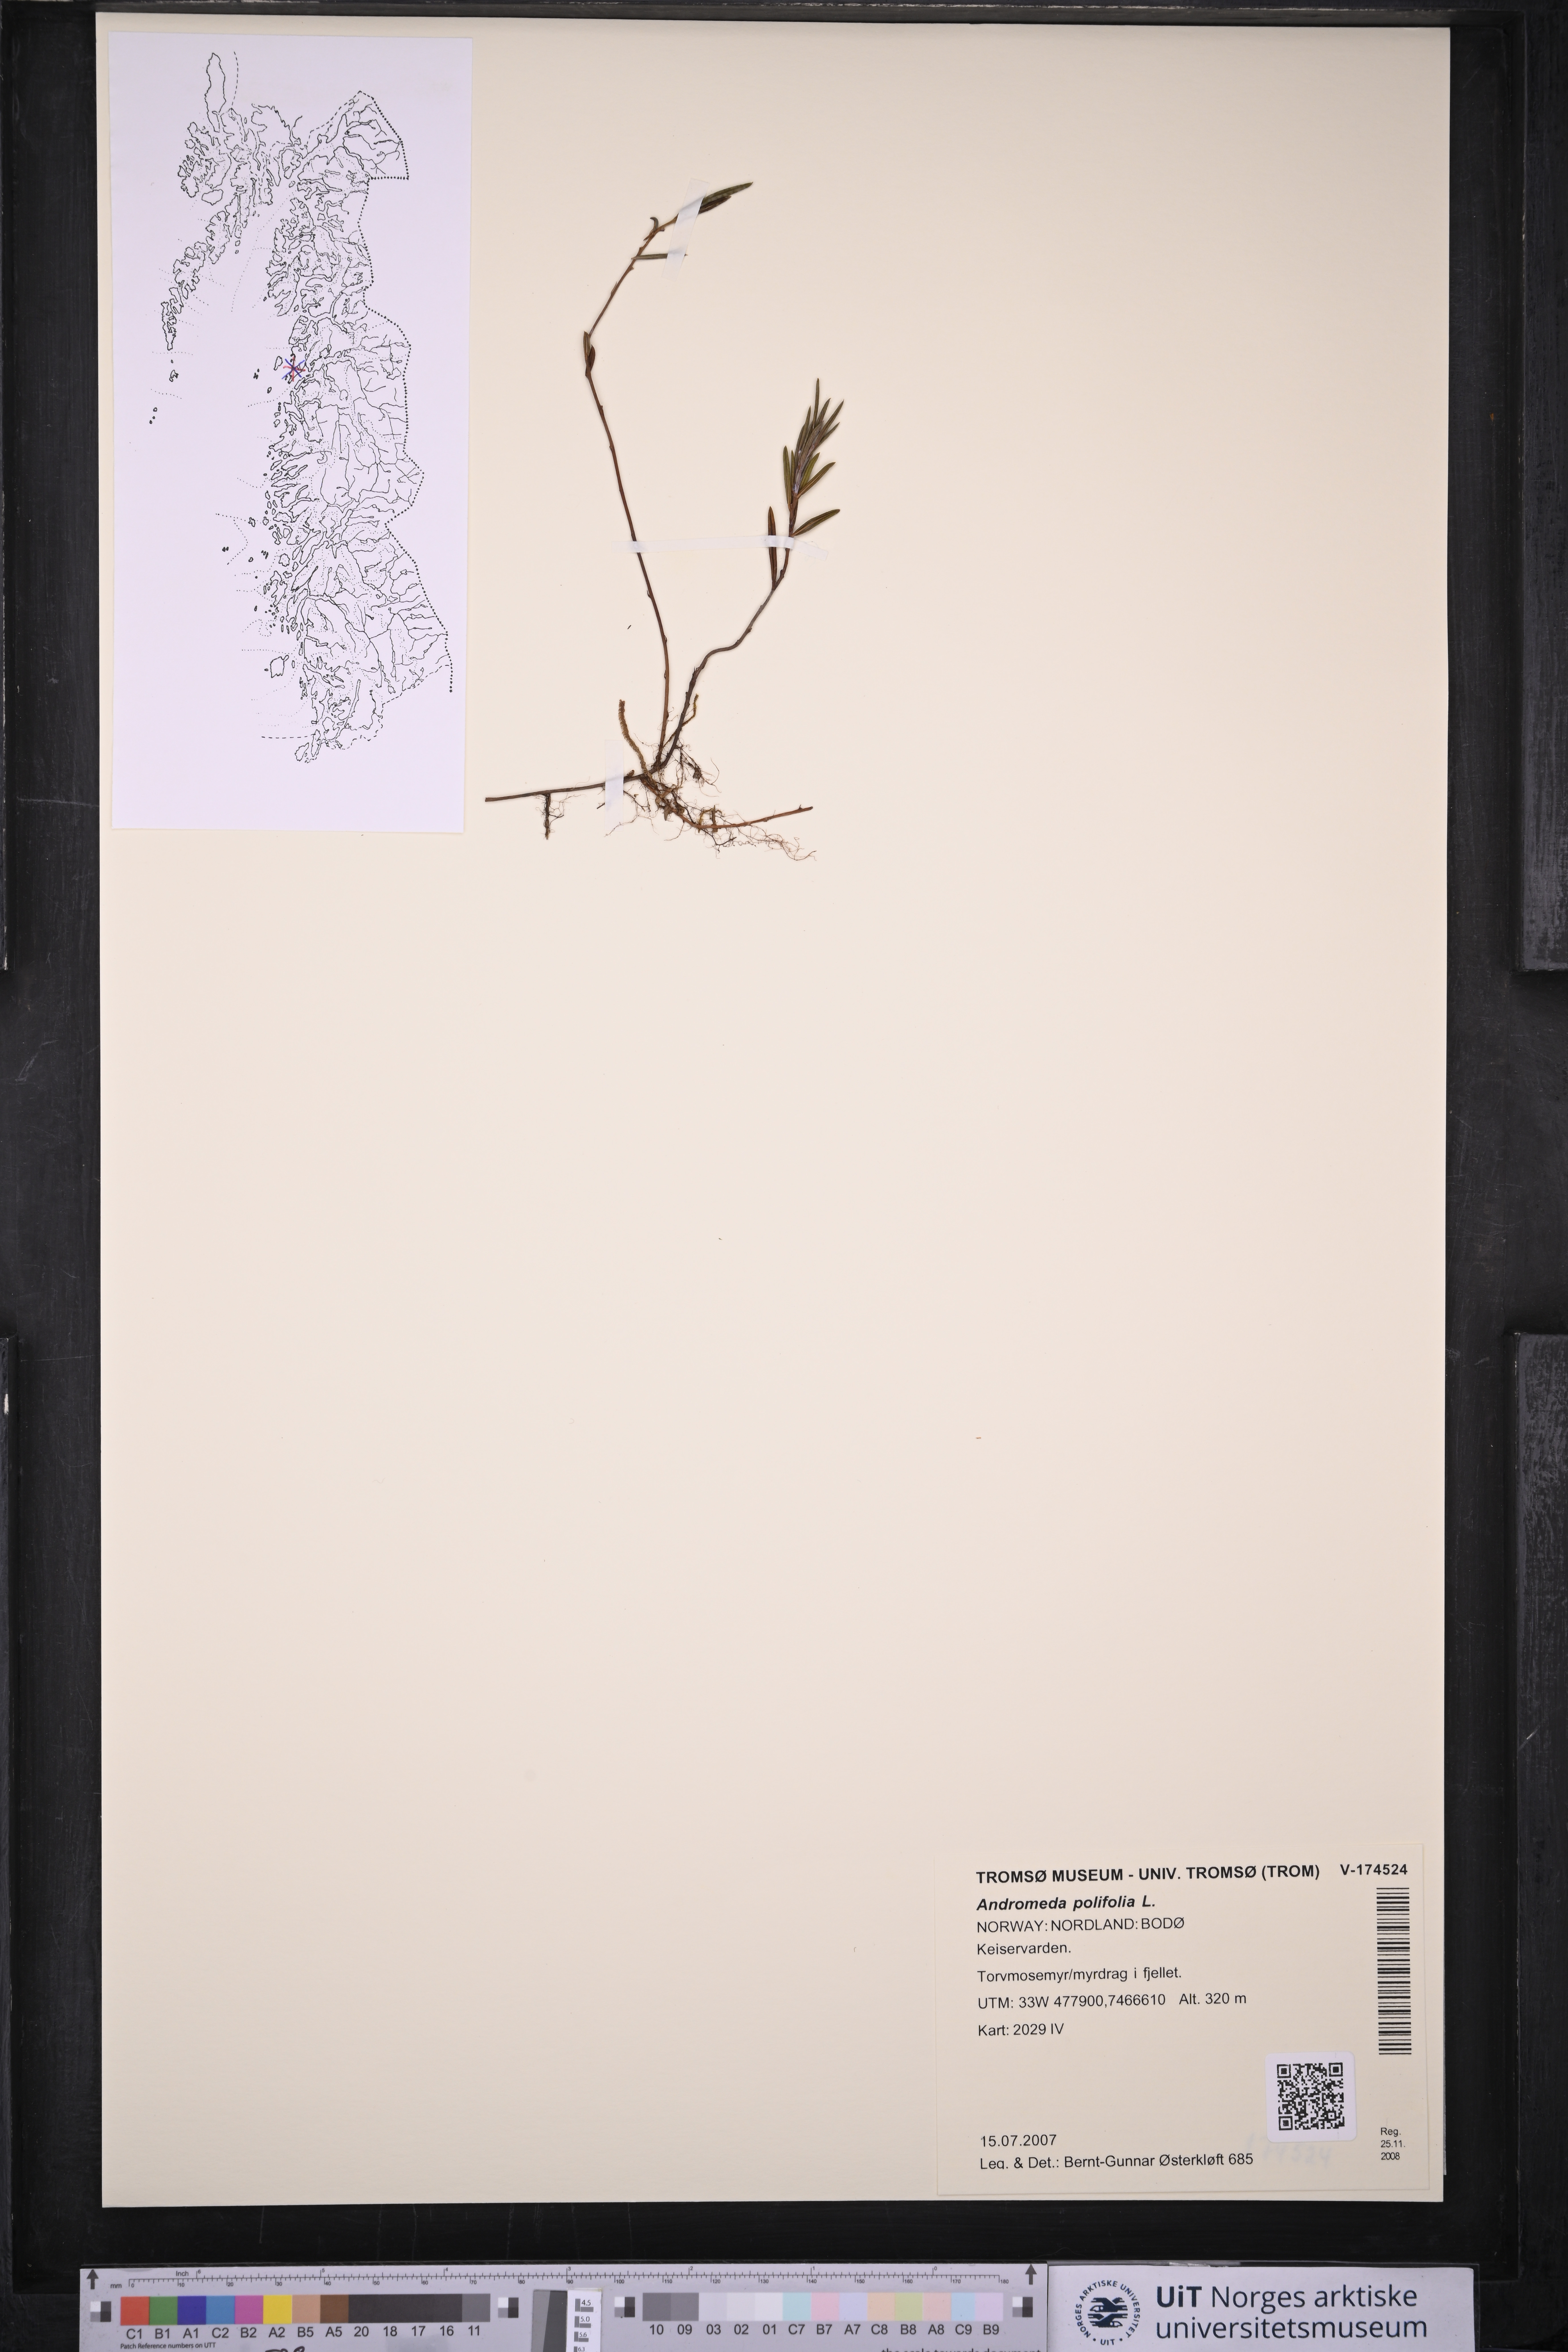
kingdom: Plantae
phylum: Tracheophyta
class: Magnoliopsida
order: Ericales
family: Ericaceae
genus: Andromeda
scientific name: Andromeda polifolia
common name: Bog-rosemary
